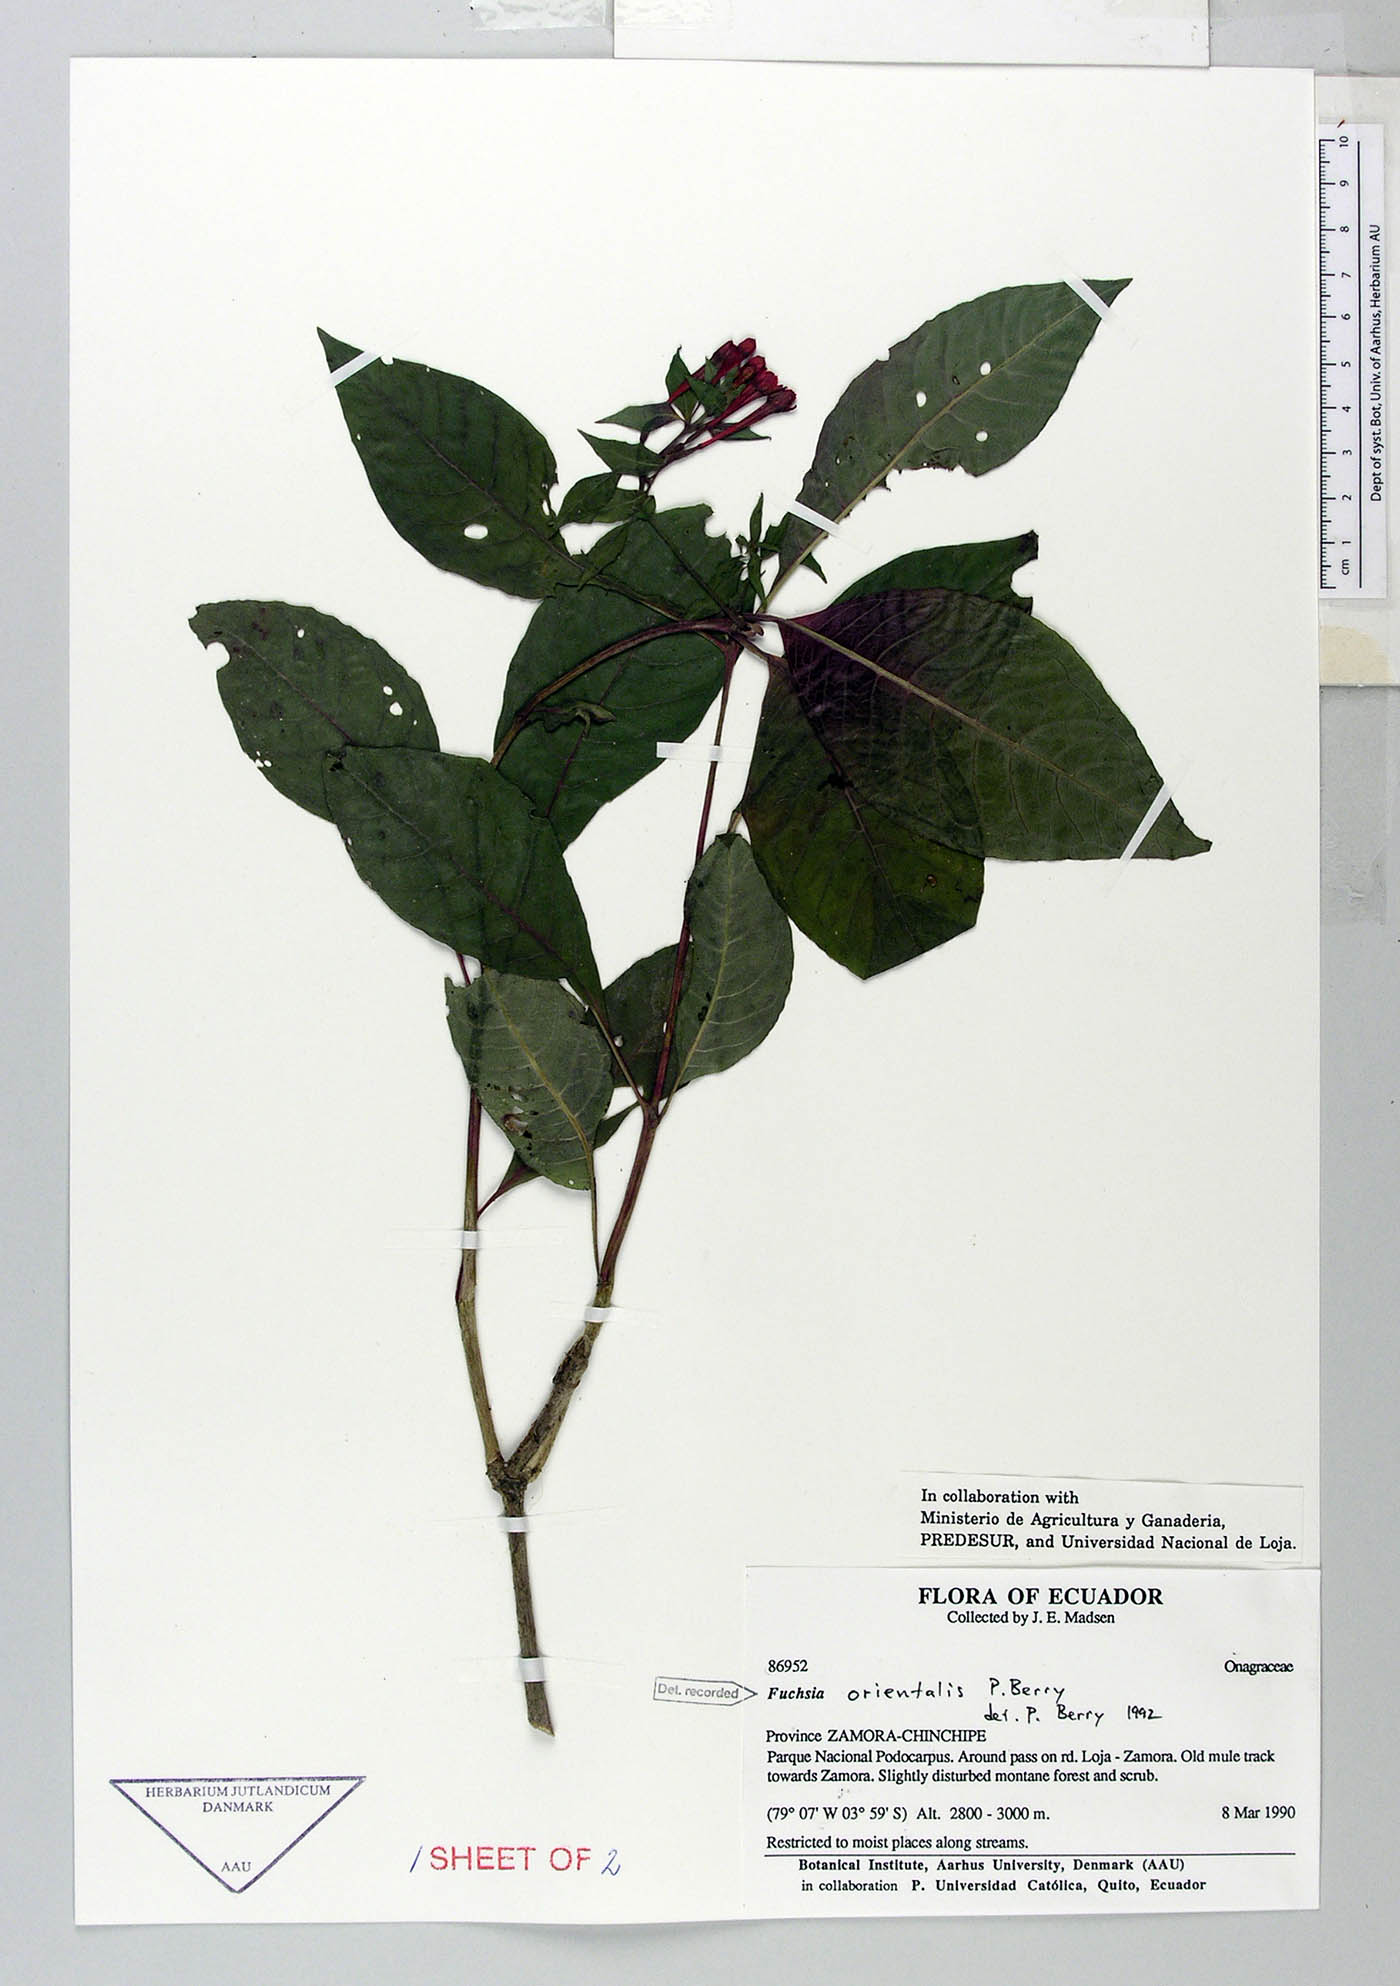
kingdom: Plantae
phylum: Tracheophyta
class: Magnoliopsida
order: Myrtales
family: Onagraceae
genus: Fuchsia
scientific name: Fuchsia orientalis
